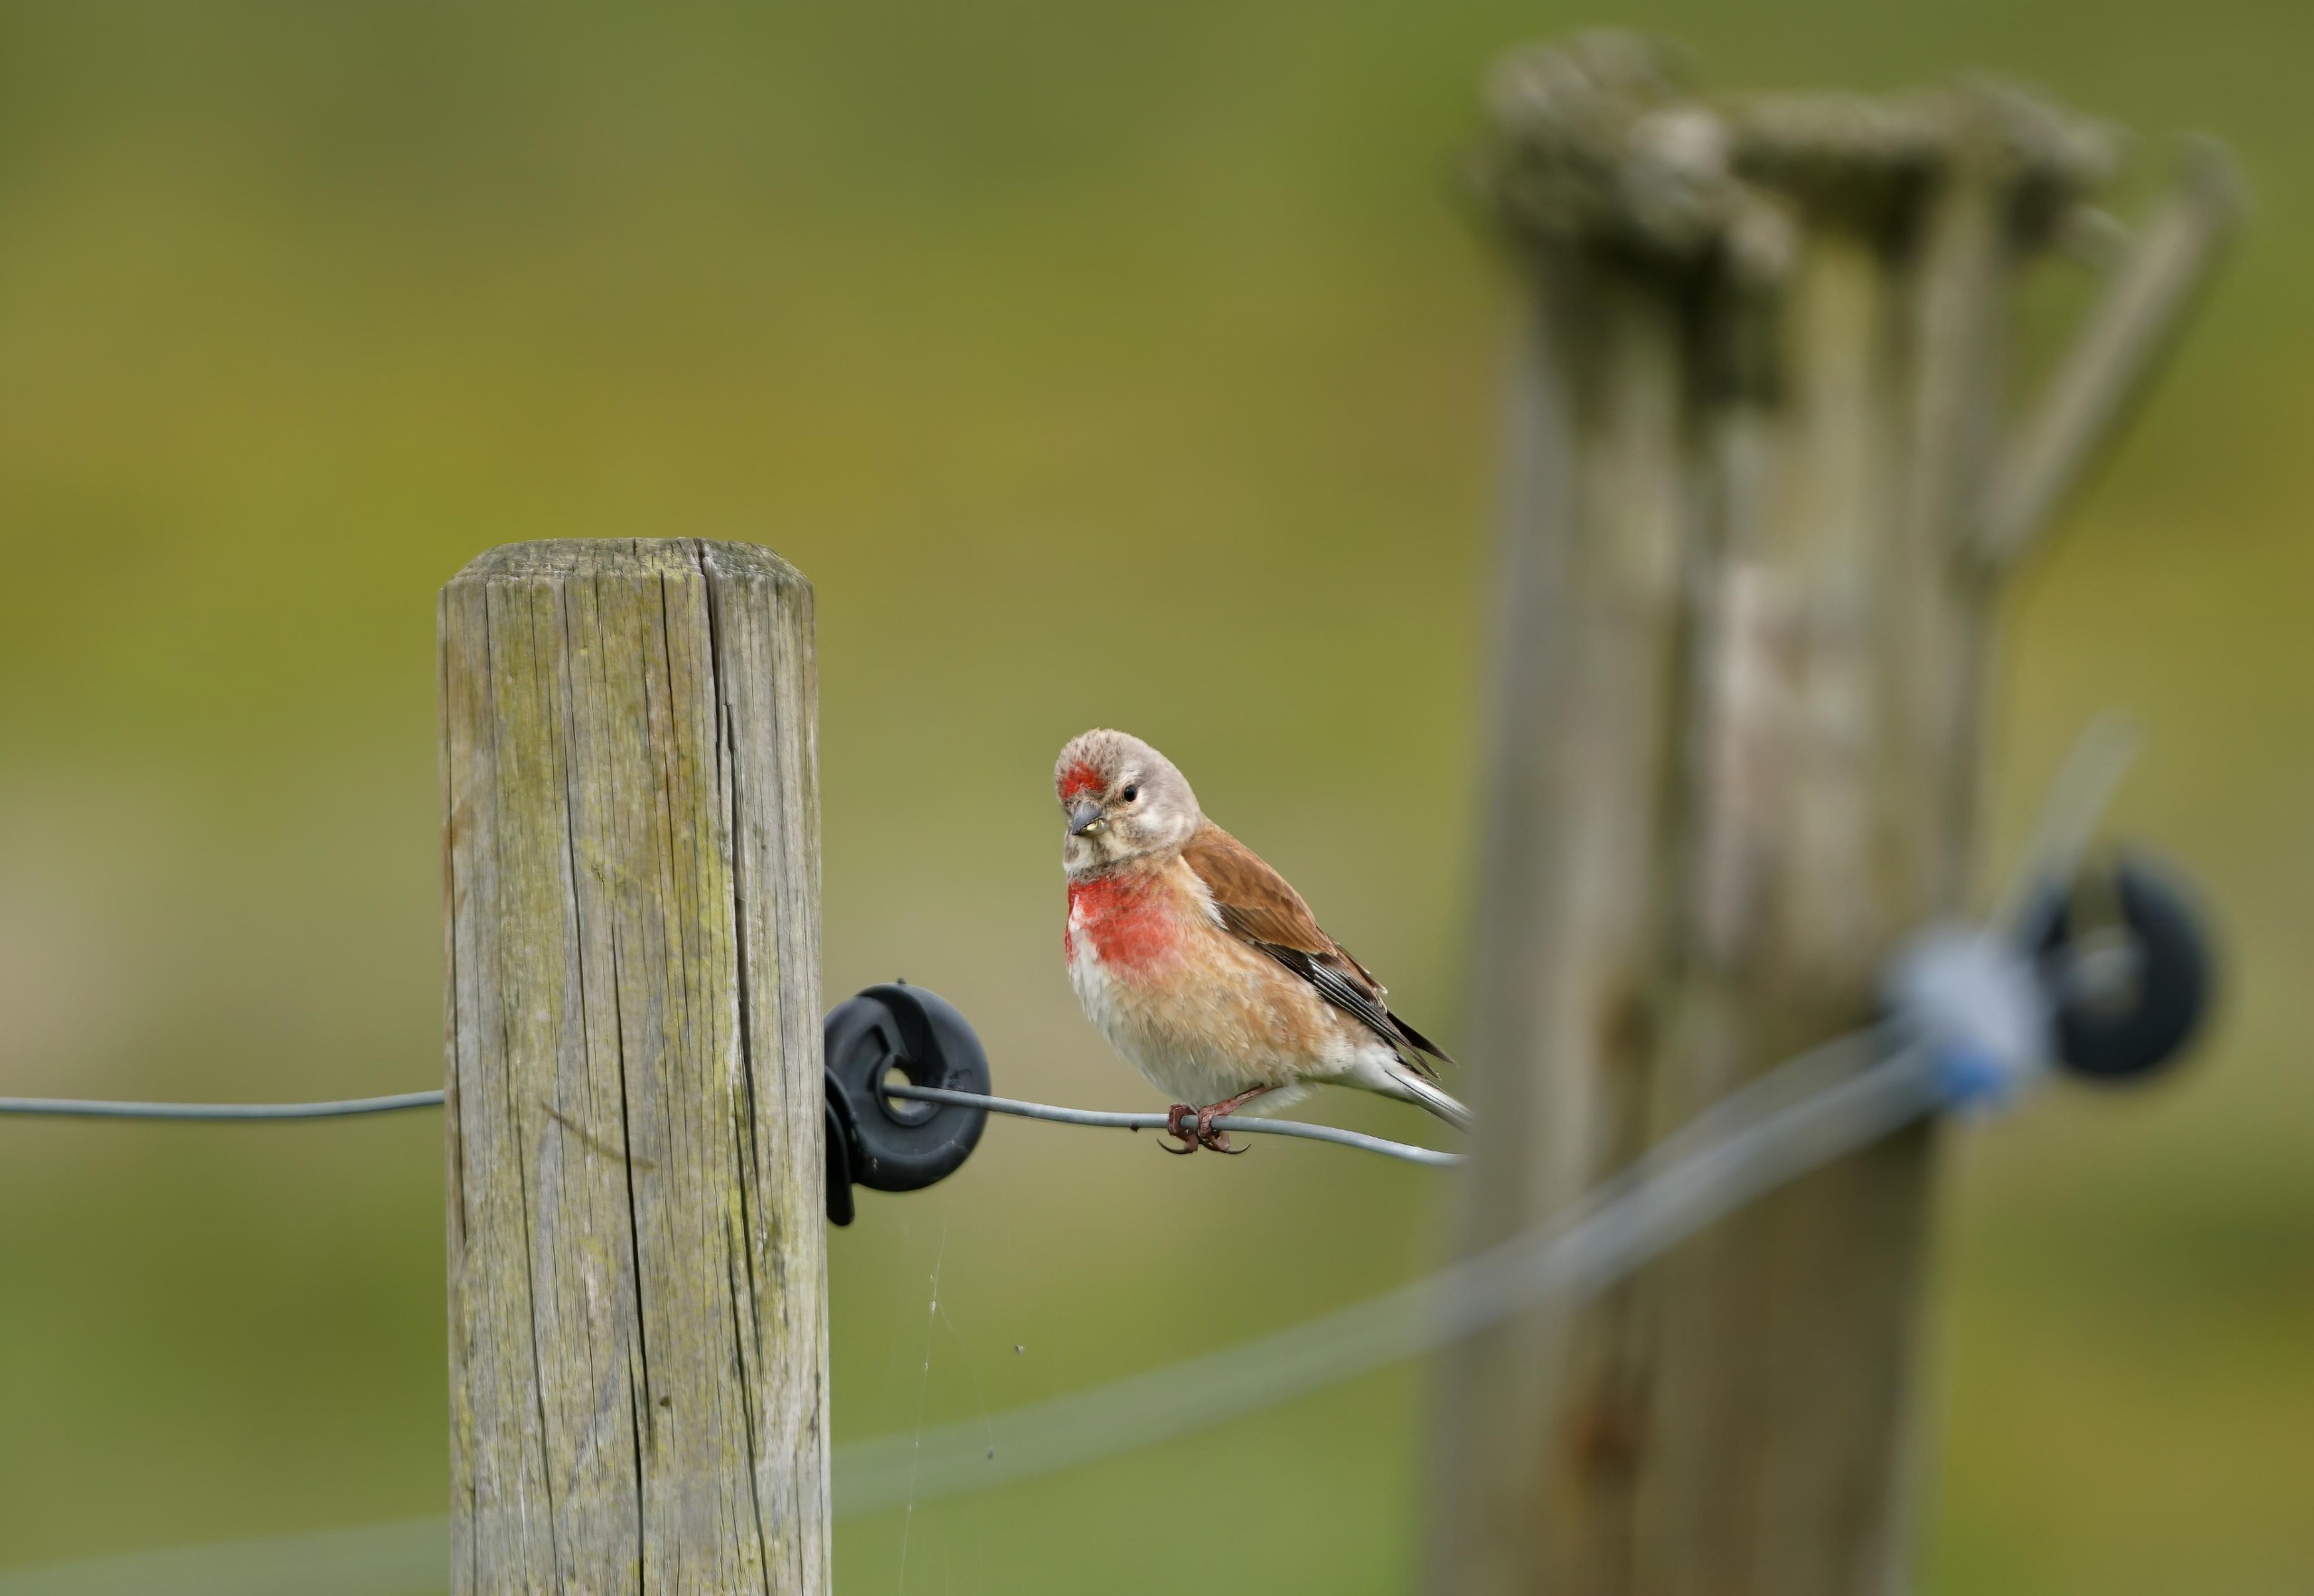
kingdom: Animalia
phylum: Chordata
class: Aves
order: Passeriformes
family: Fringillidae
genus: Linaria
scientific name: Linaria cannabina
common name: Tornirisk
